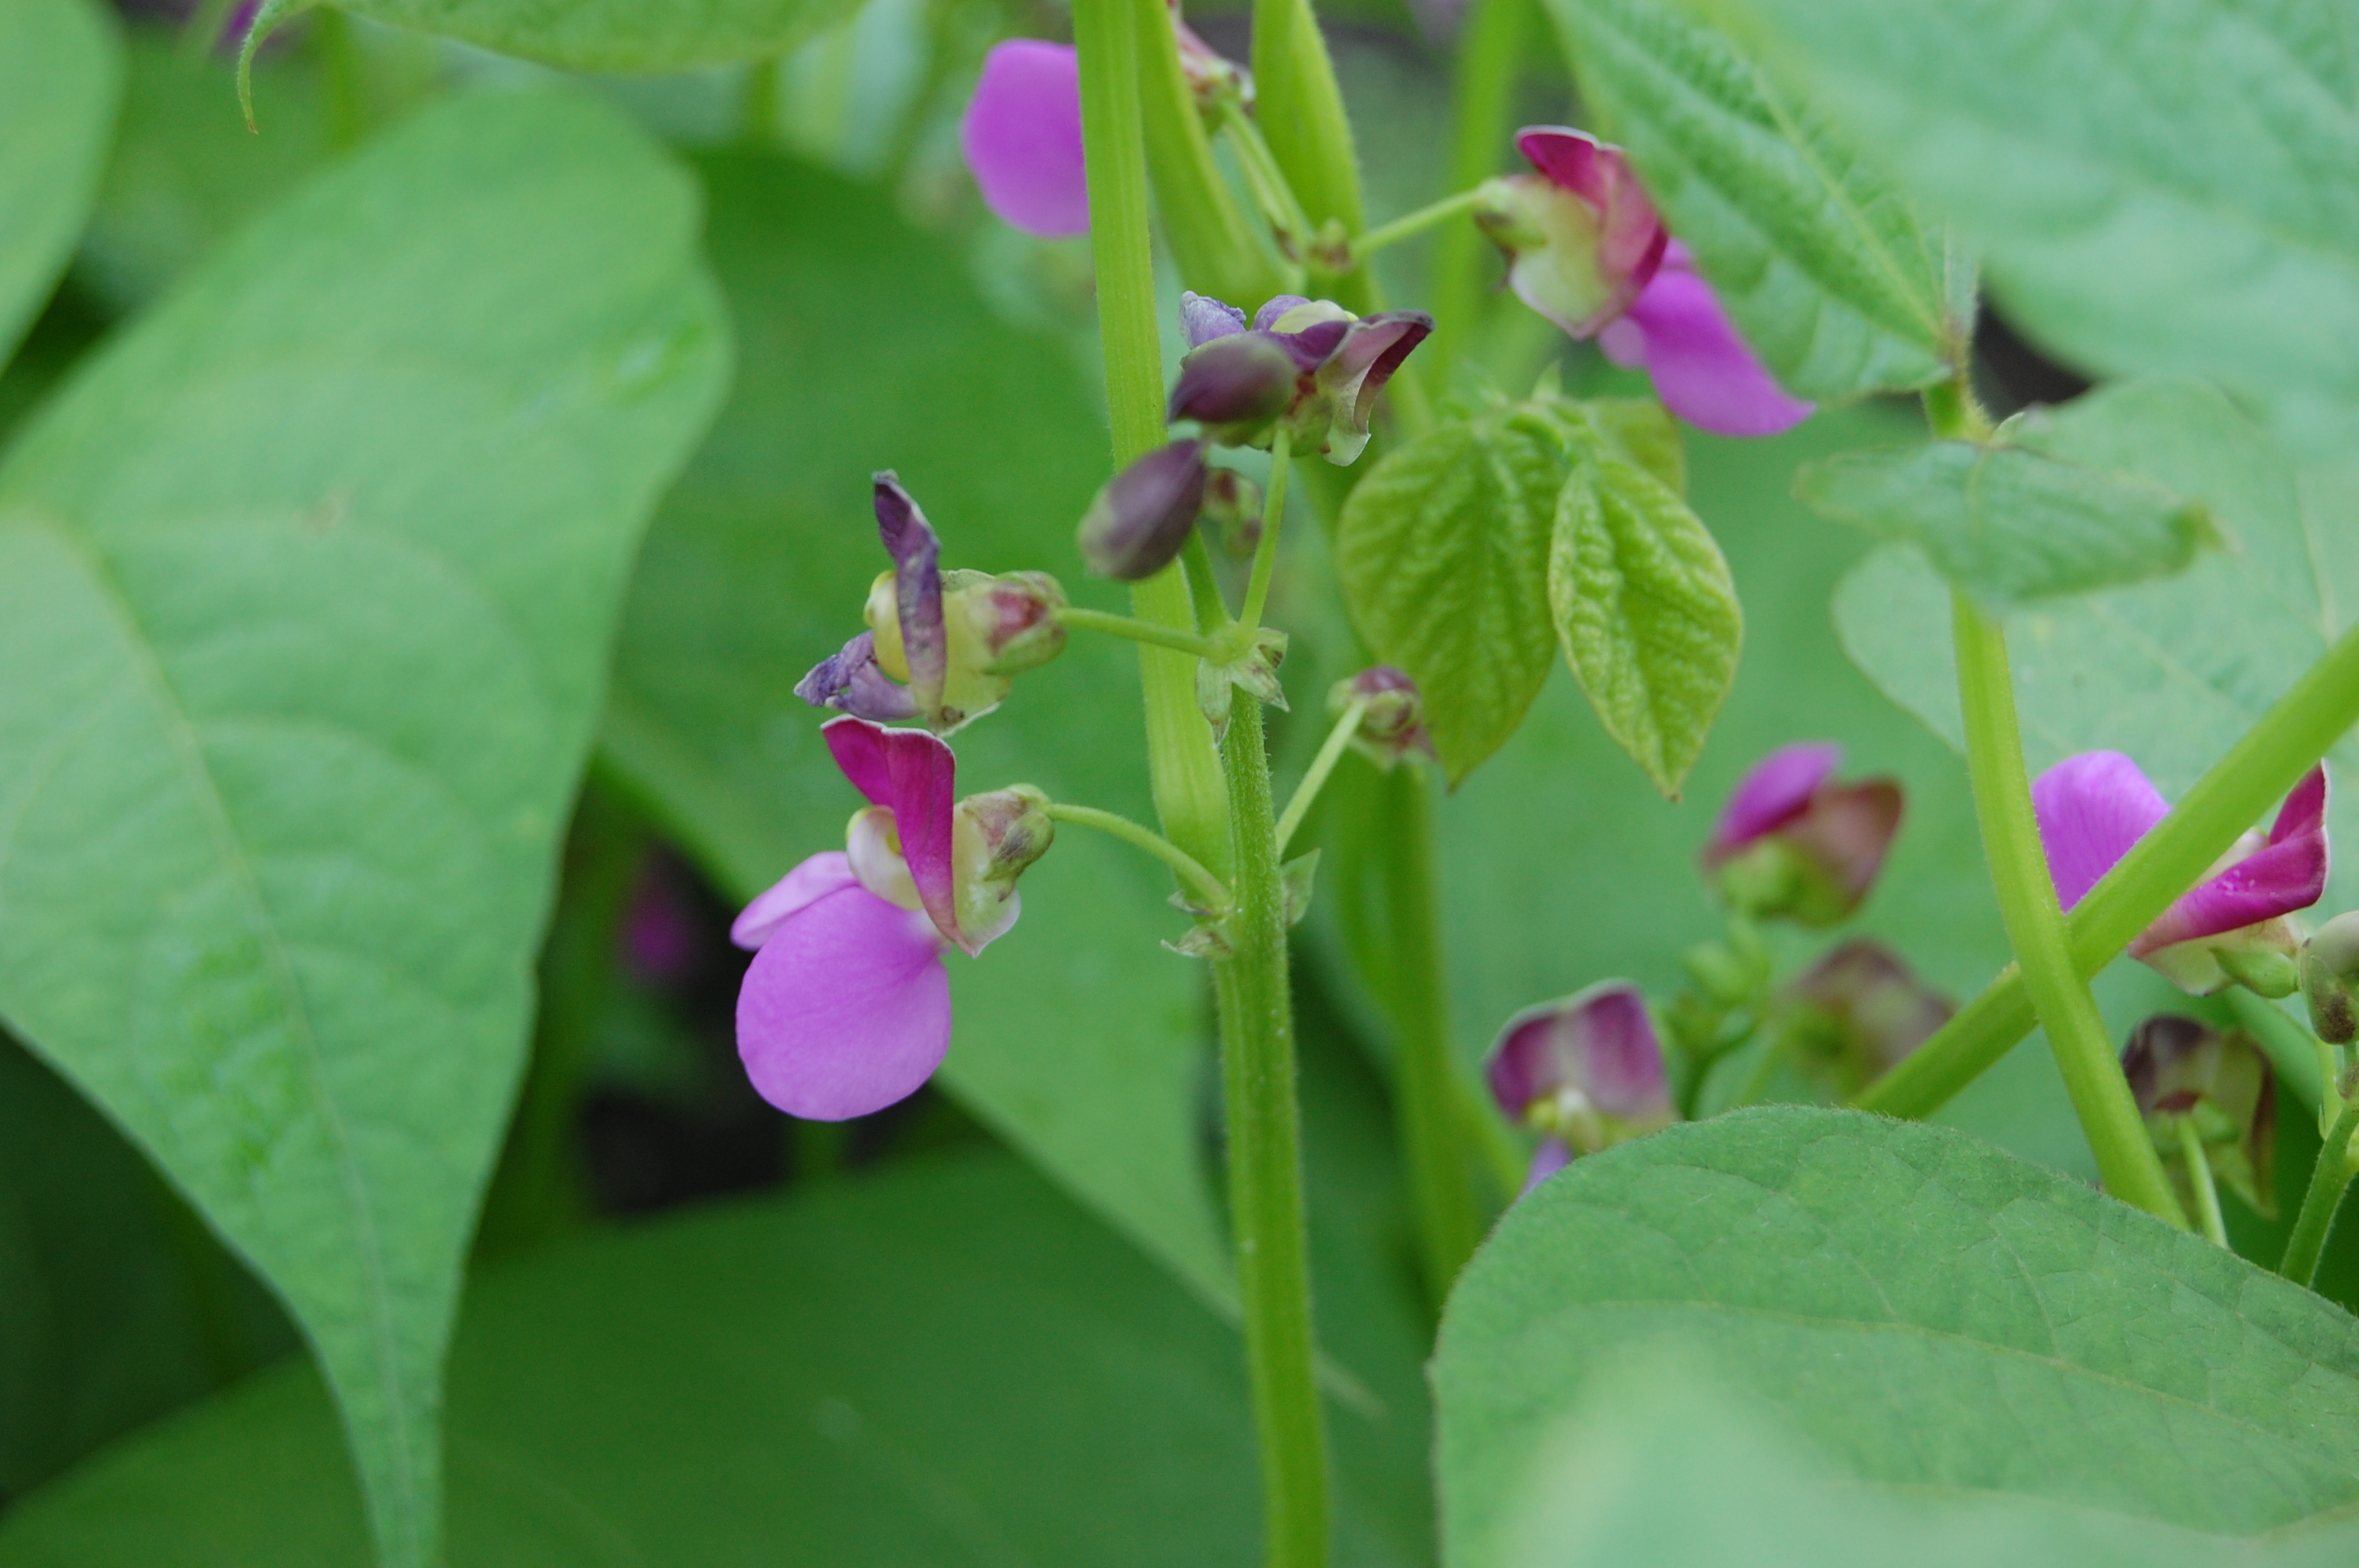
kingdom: Plantae
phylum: Tracheophyta
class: Magnoliopsida
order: Fabales
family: Fabaceae
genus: Phaseolus
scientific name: Phaseolus vulgaris
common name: Bean
